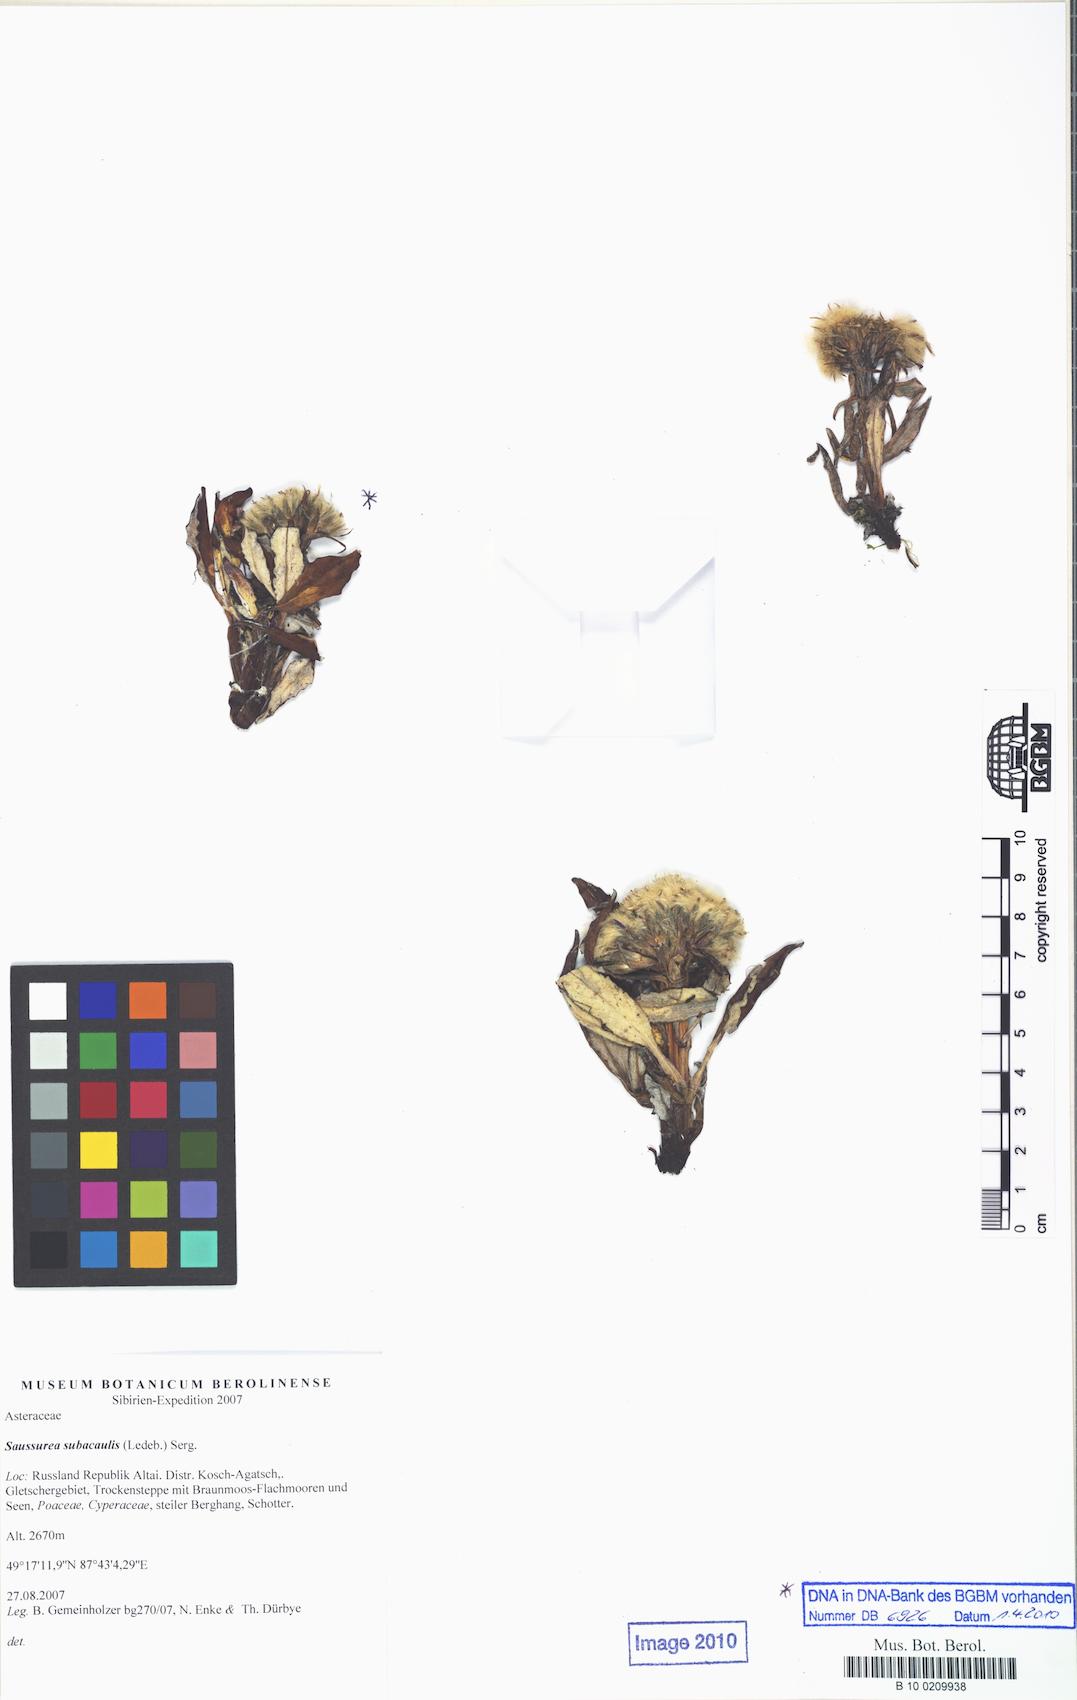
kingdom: Plantae
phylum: Tracheophyta
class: Magnoliopsida
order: Asterales
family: Asteraceae
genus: Saussurea
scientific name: Saussurea subacaulis
